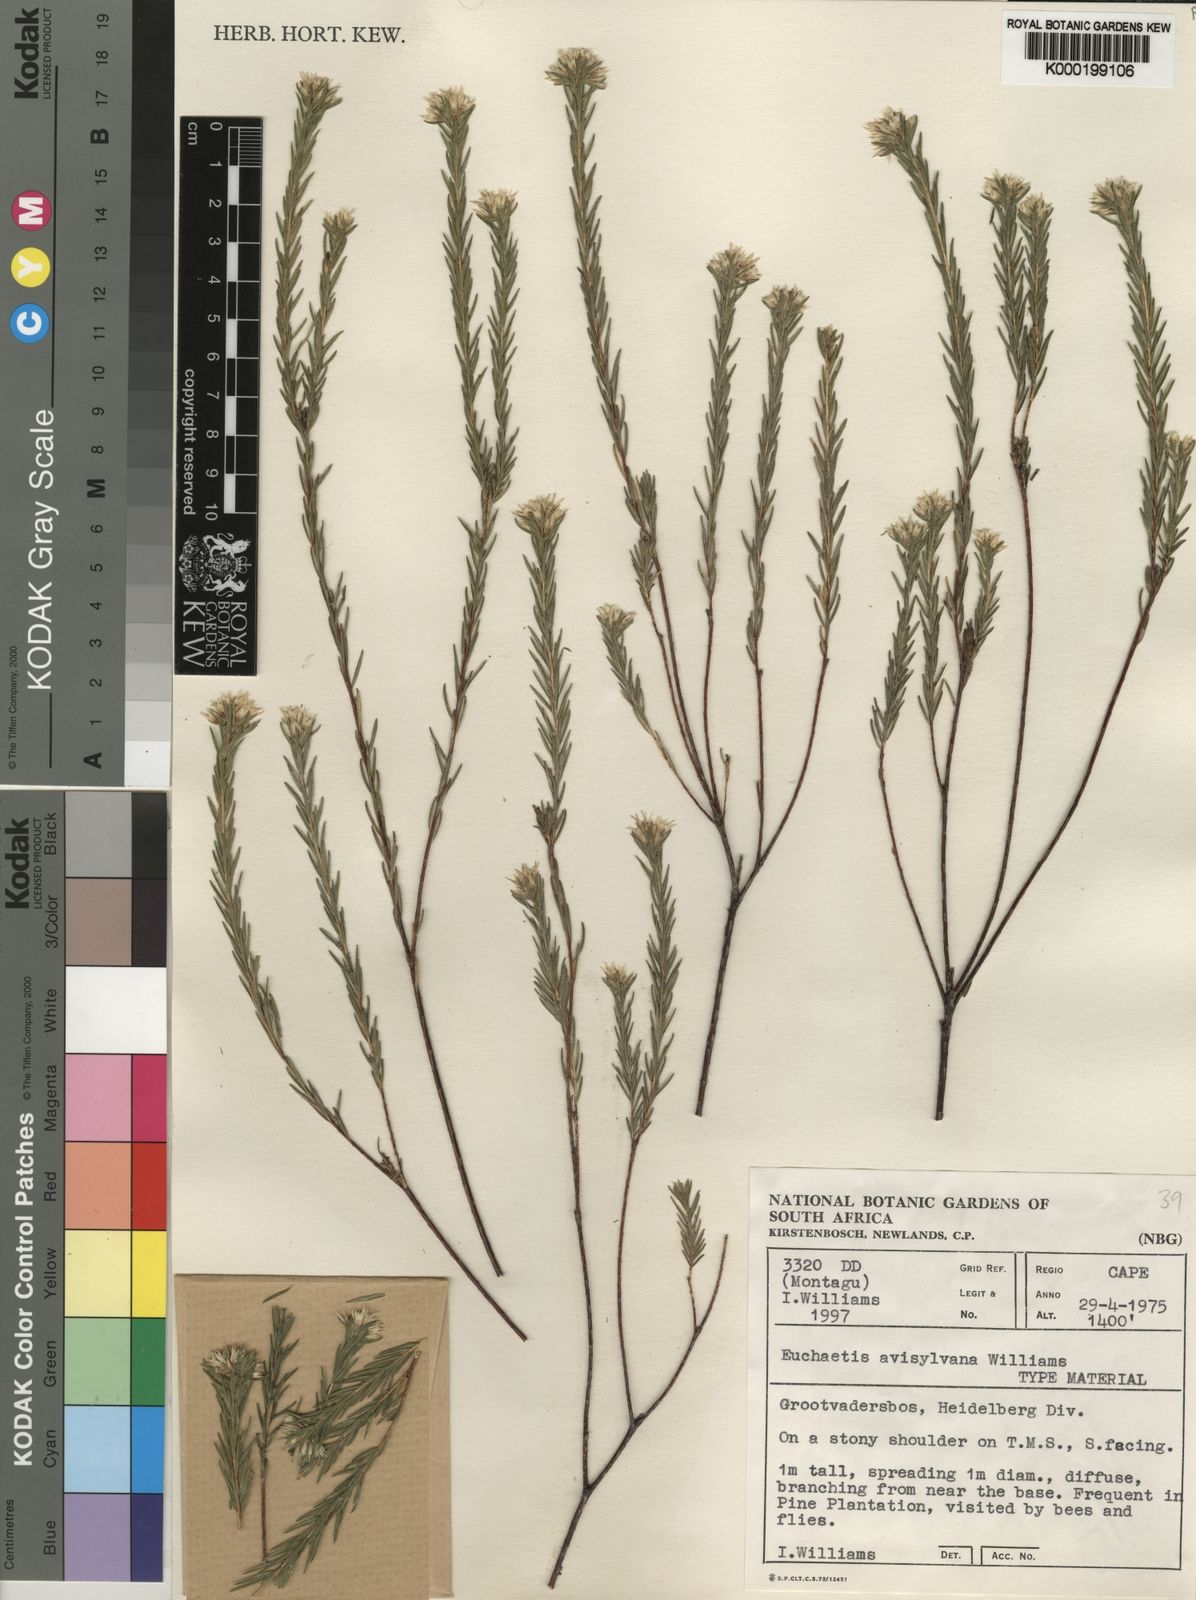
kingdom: Plantae
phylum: Tracheophyta
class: Magnoliopsida
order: Sapindales
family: Rutaceae
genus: Euchaetis
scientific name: Euchaetis avisylvana
